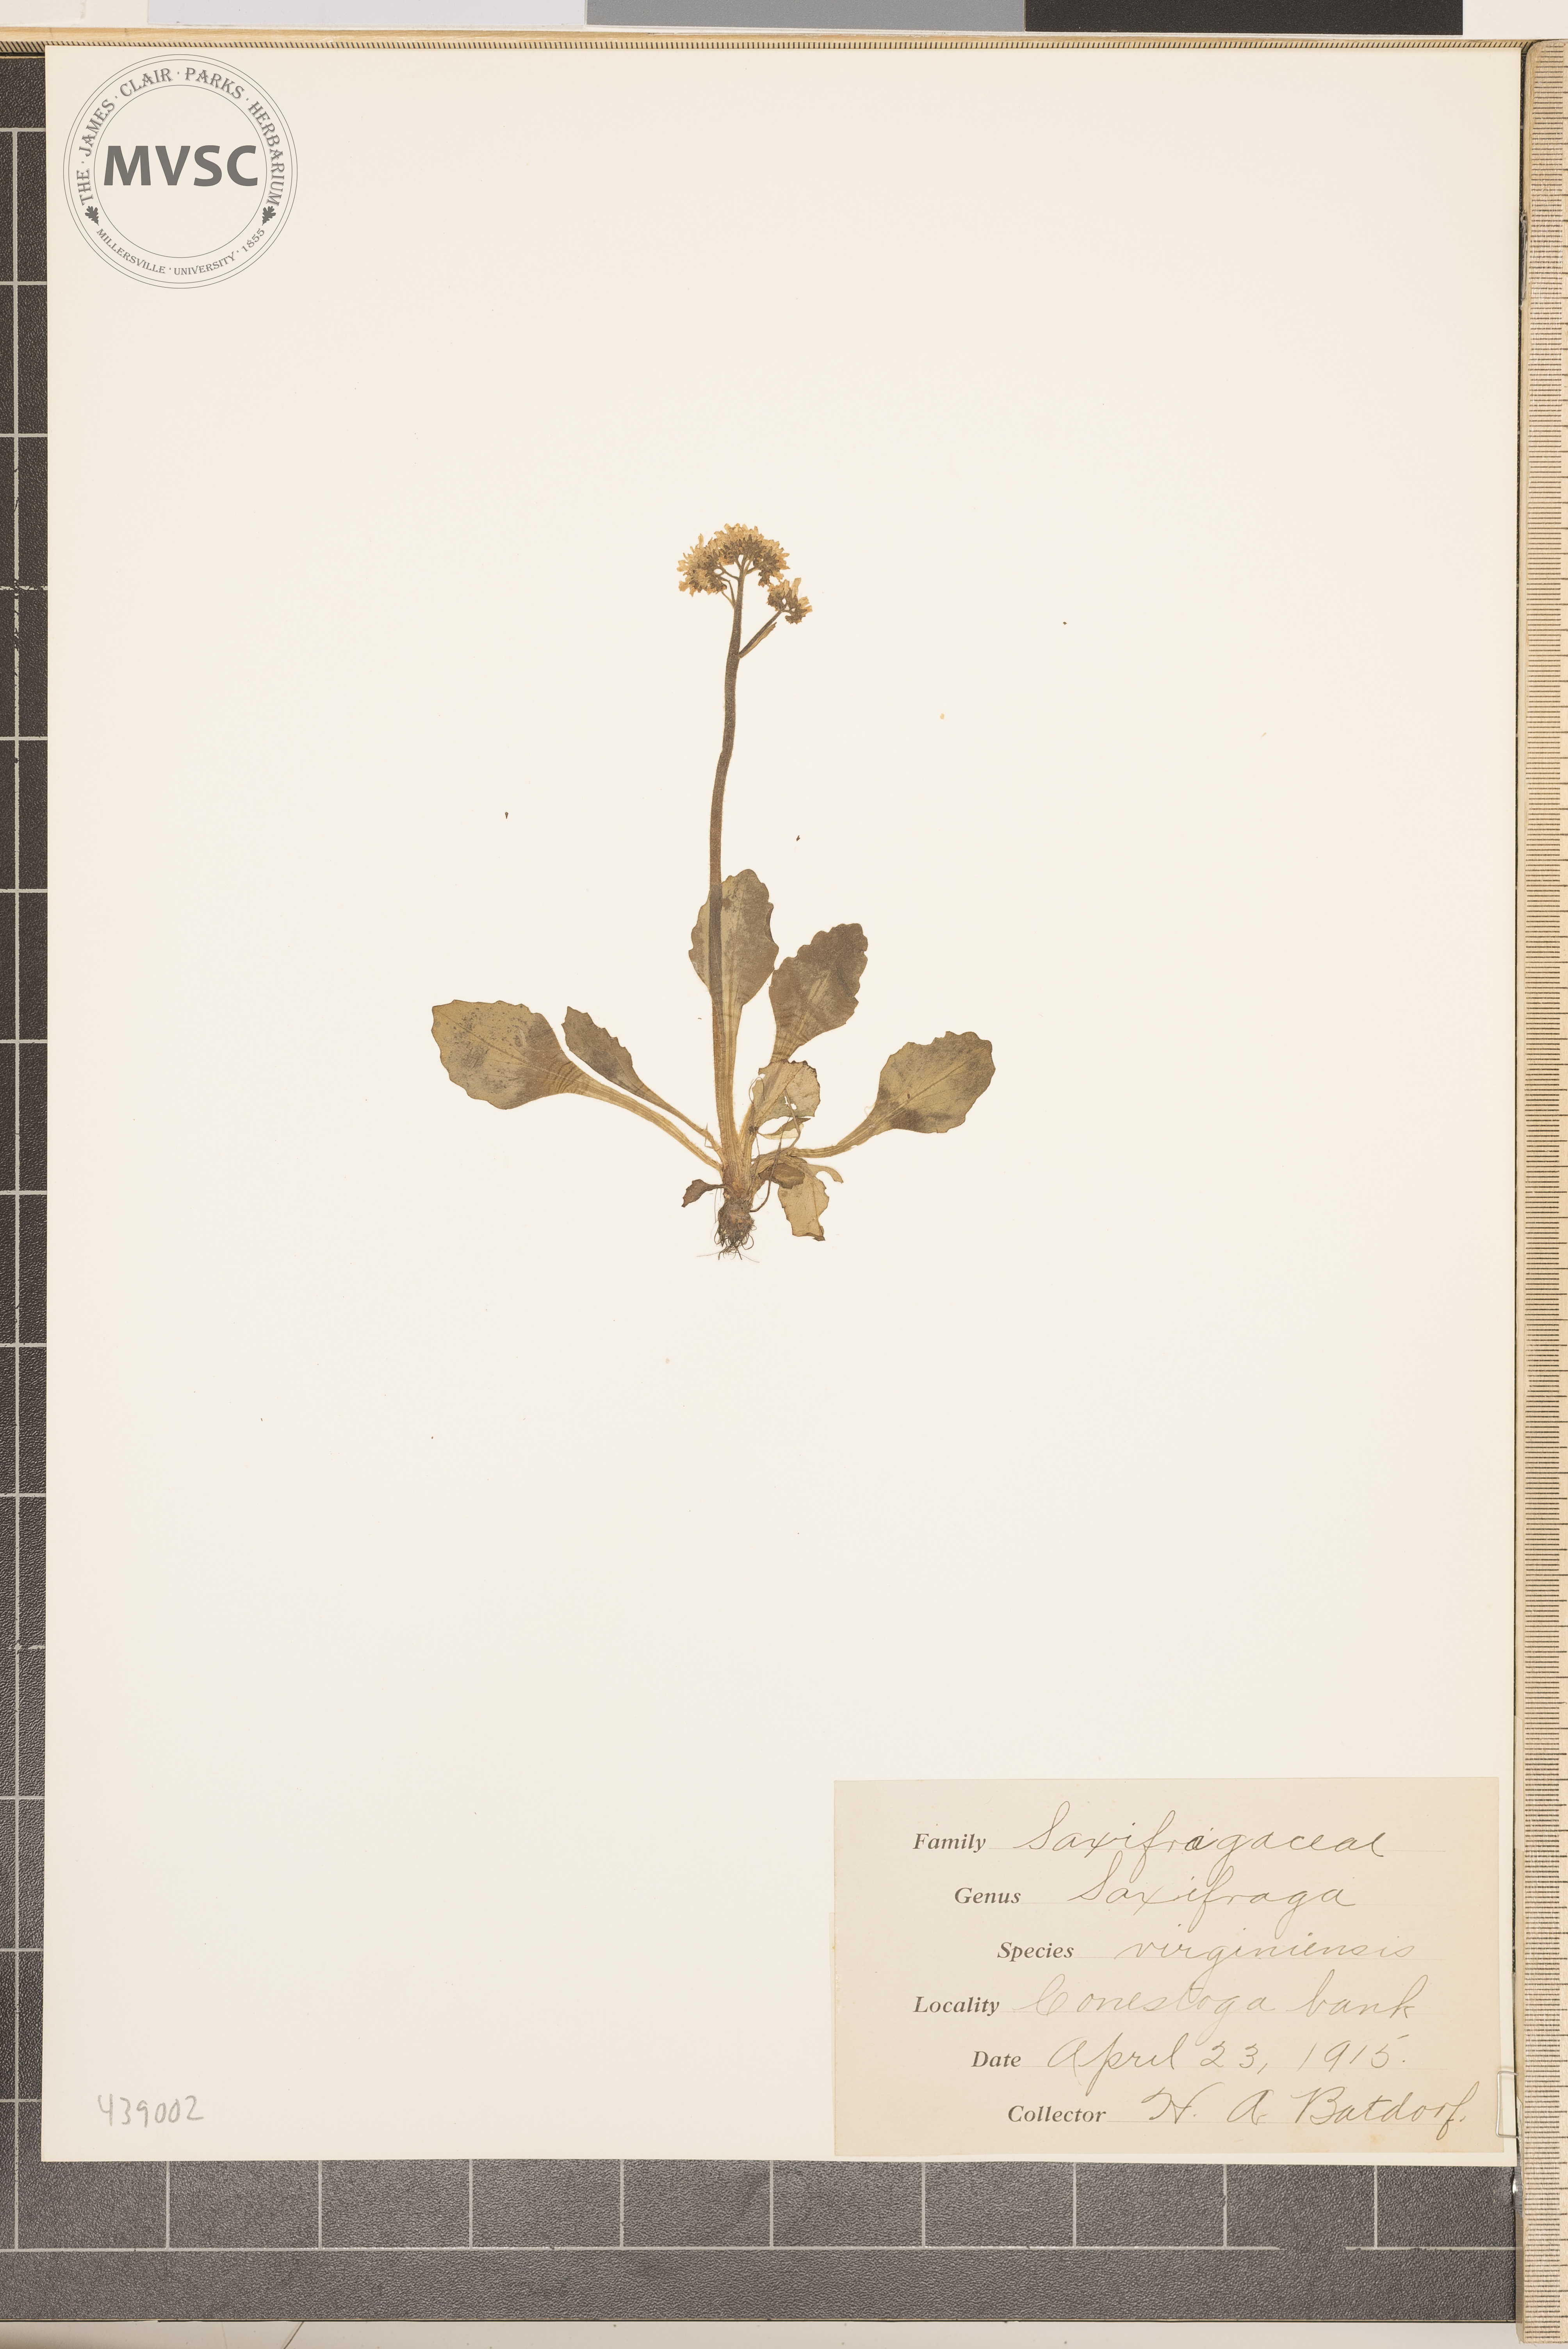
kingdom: Plantae
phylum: Tracheophyta
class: Magnoliopsida
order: Saxifragales
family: Saxifragaceae
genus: Micranthes
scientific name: Micranthes virginiensis
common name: Early saxifrage
